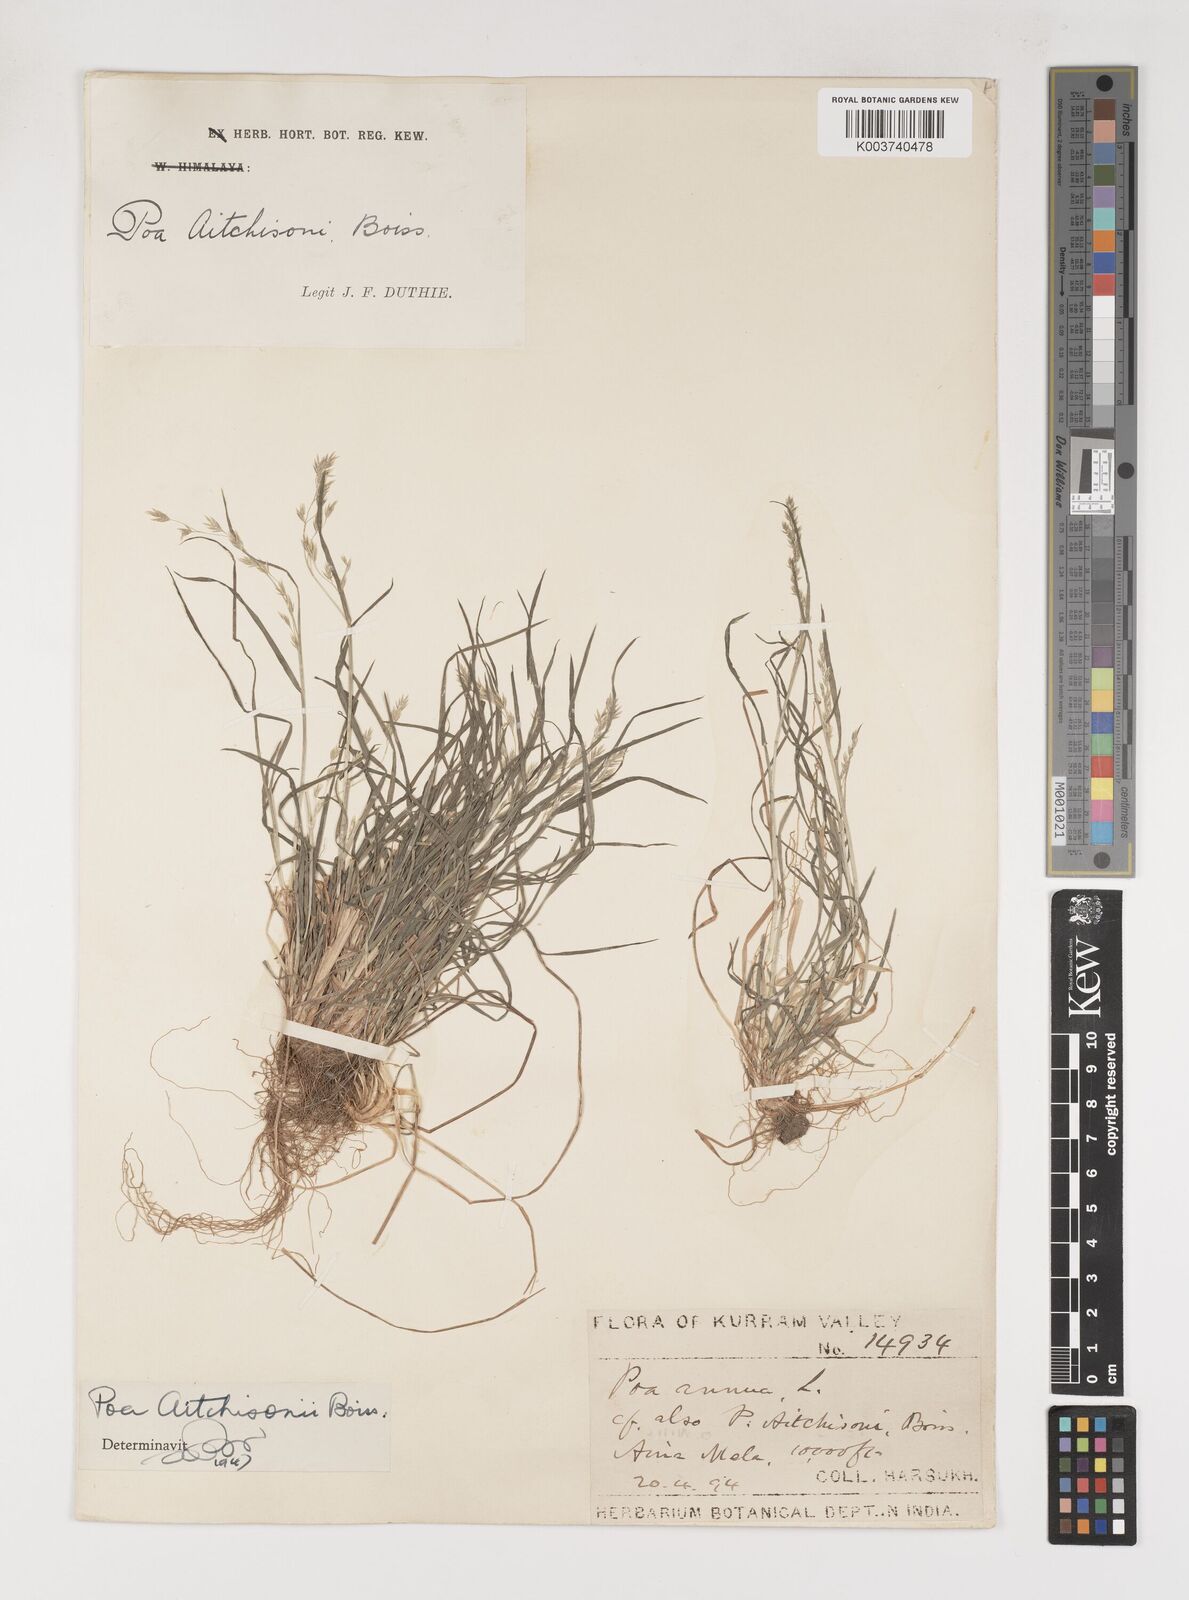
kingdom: Plantae
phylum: Tracheophyta
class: Liliopsida
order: Poales
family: Poaceae
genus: Poa
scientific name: Poa aitchisonii
